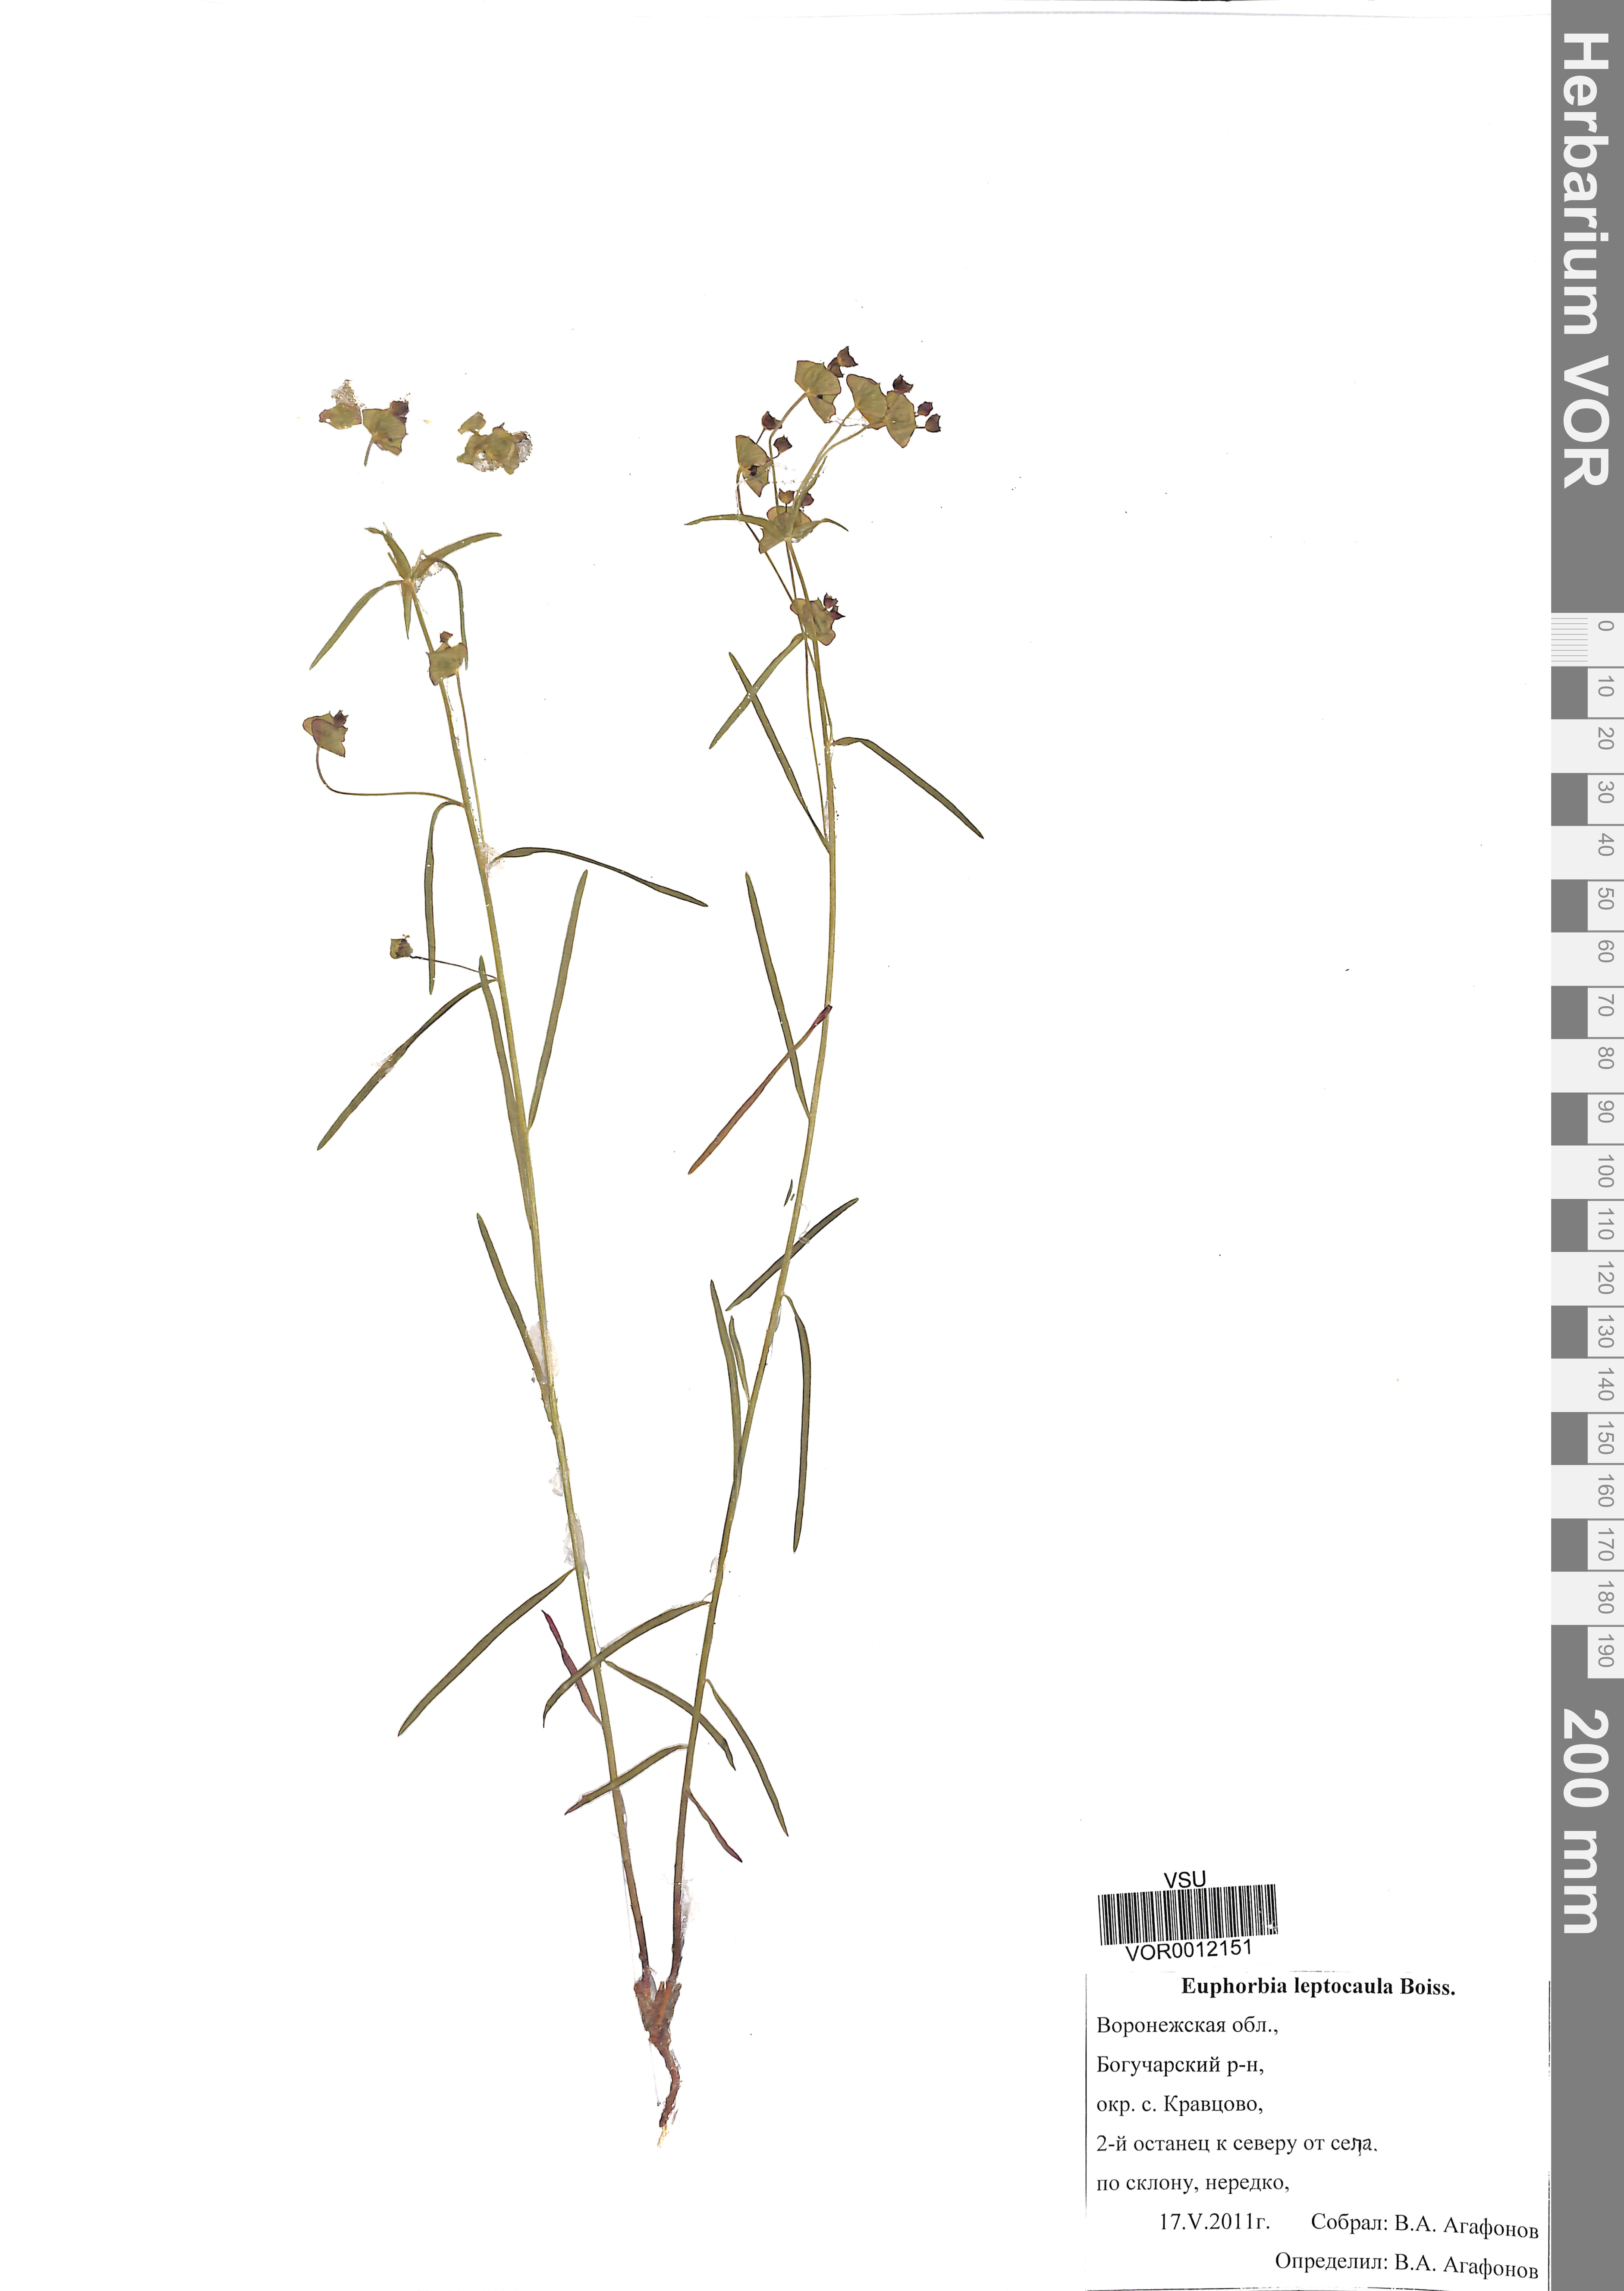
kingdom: Plantae
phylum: Tracheophyta
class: Magnoliopsida
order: Malpighiales
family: Euphorbiaceae
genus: Euphorbia
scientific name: Euphorbia leptocaula
